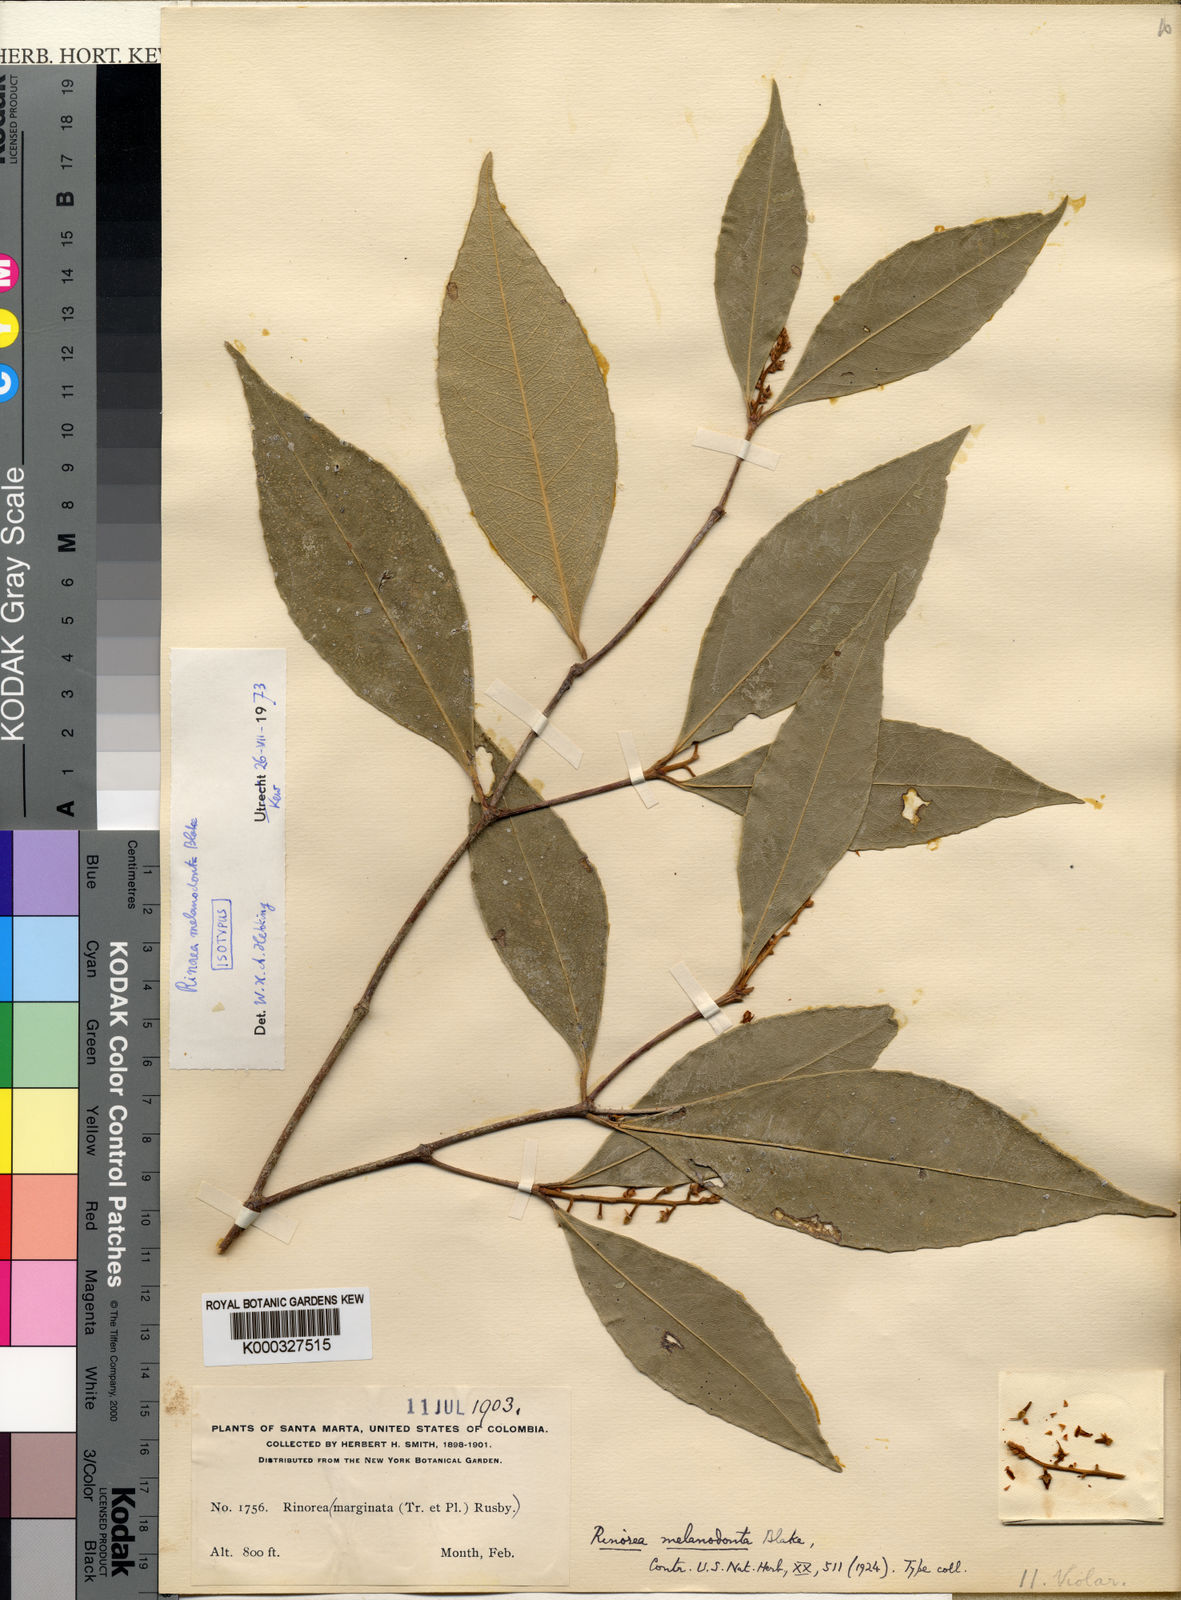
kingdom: Plantae
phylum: Tracheophyta
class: Magnoliopsida
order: Malpighiales
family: Violaceae
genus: Rinorea
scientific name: Rinorea melanodonta
